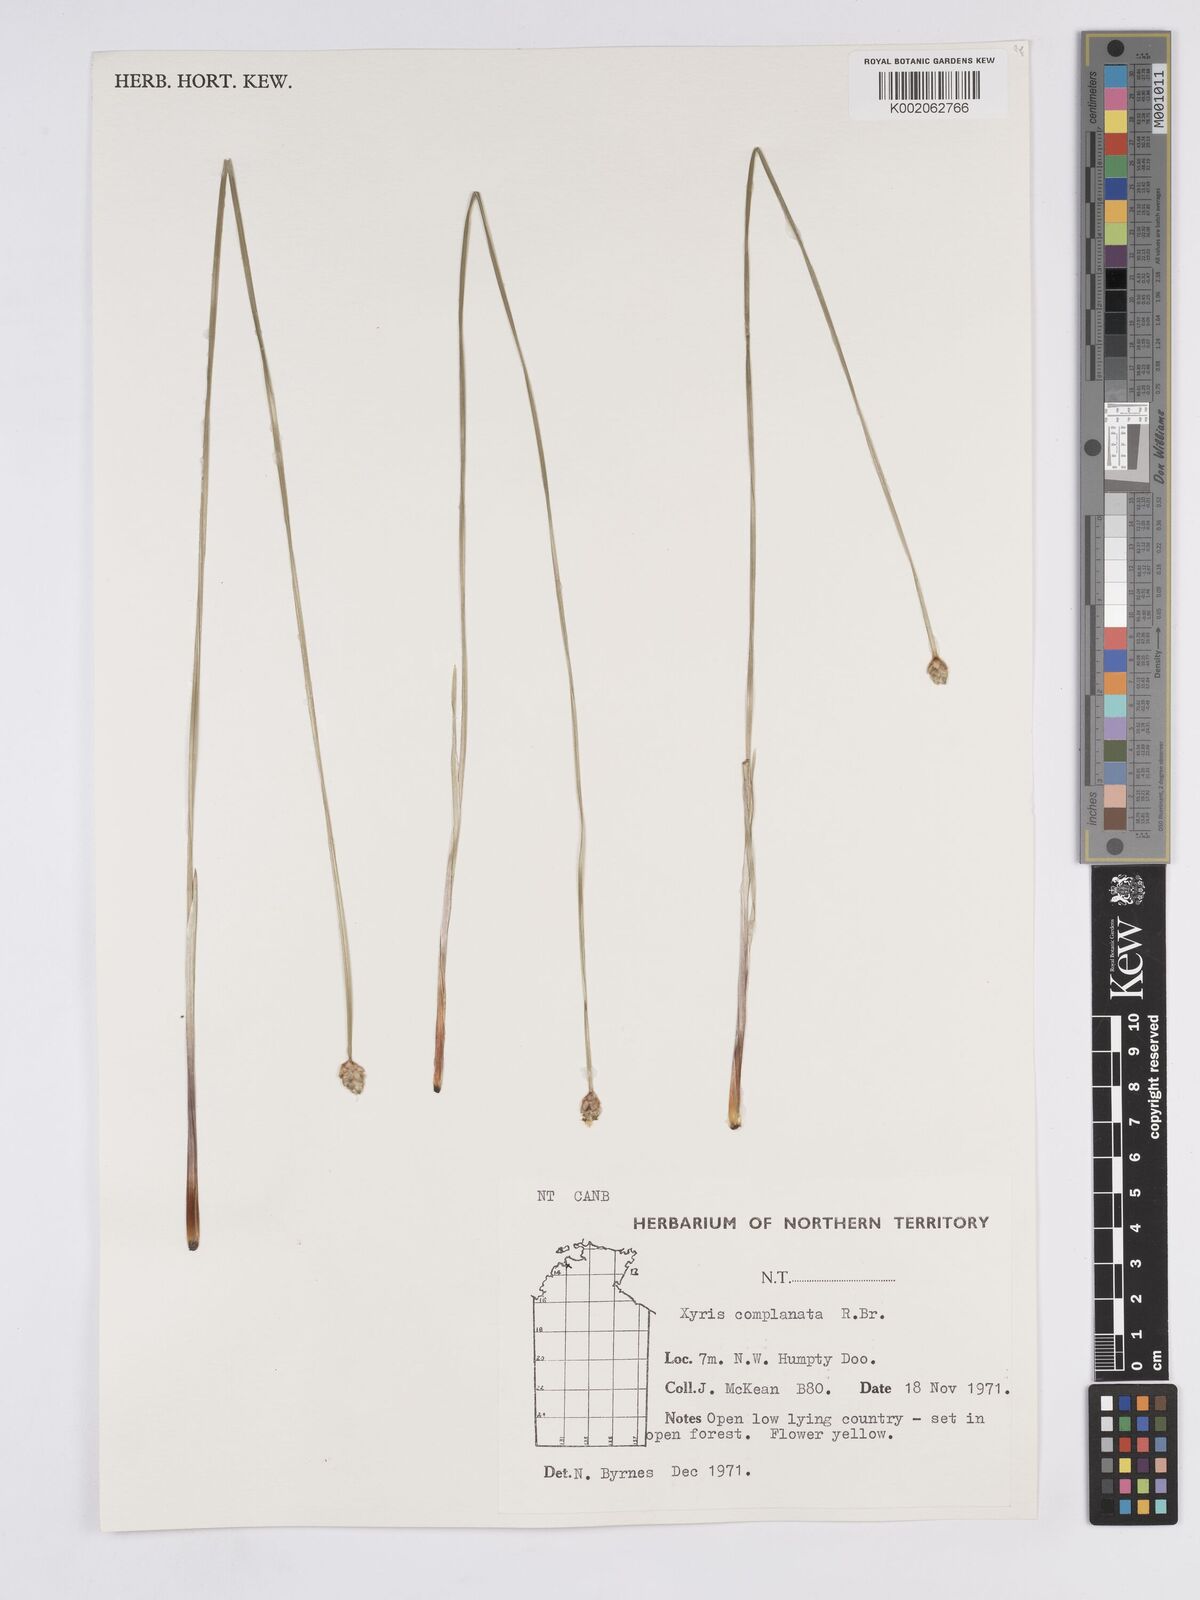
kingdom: Plantae
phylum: Tracheophyta
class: Liliopsida
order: Poales
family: Xyridaceae
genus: Xyris
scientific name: Xyris complanata
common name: Hawai'i yelloweyed grass
